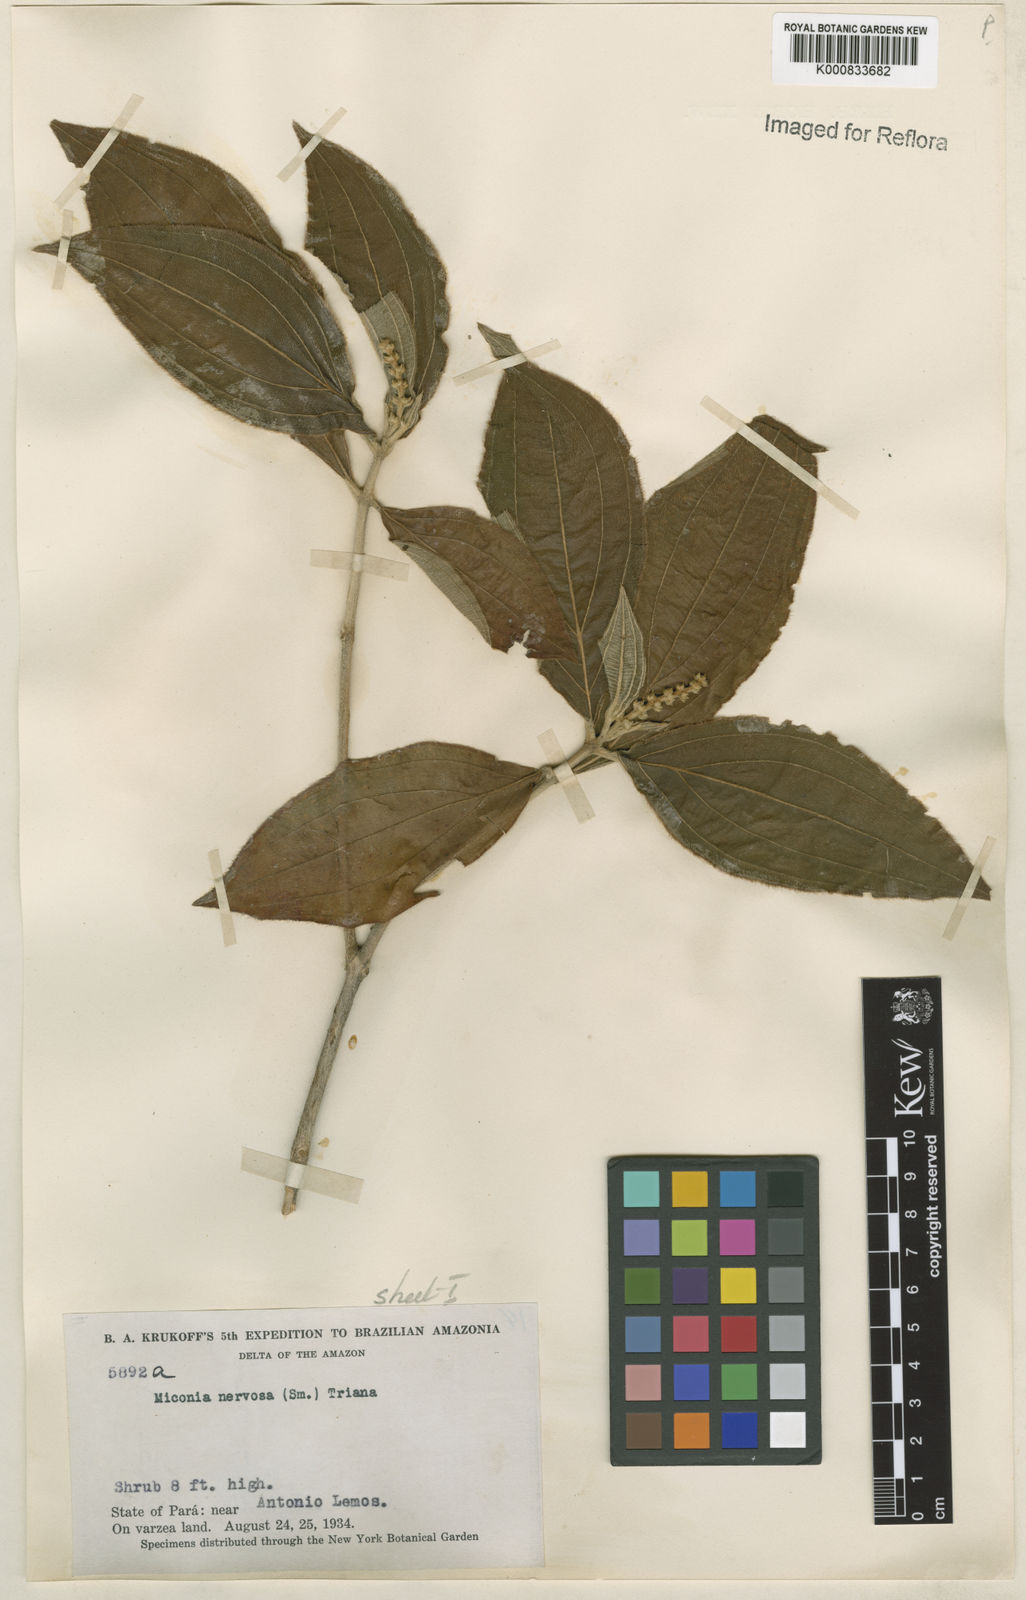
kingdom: Plantae
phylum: Tracheophyta
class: Magnoliopsida
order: Myrtales
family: Melastomataceae
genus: Miconia
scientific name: Miconia nervosa
